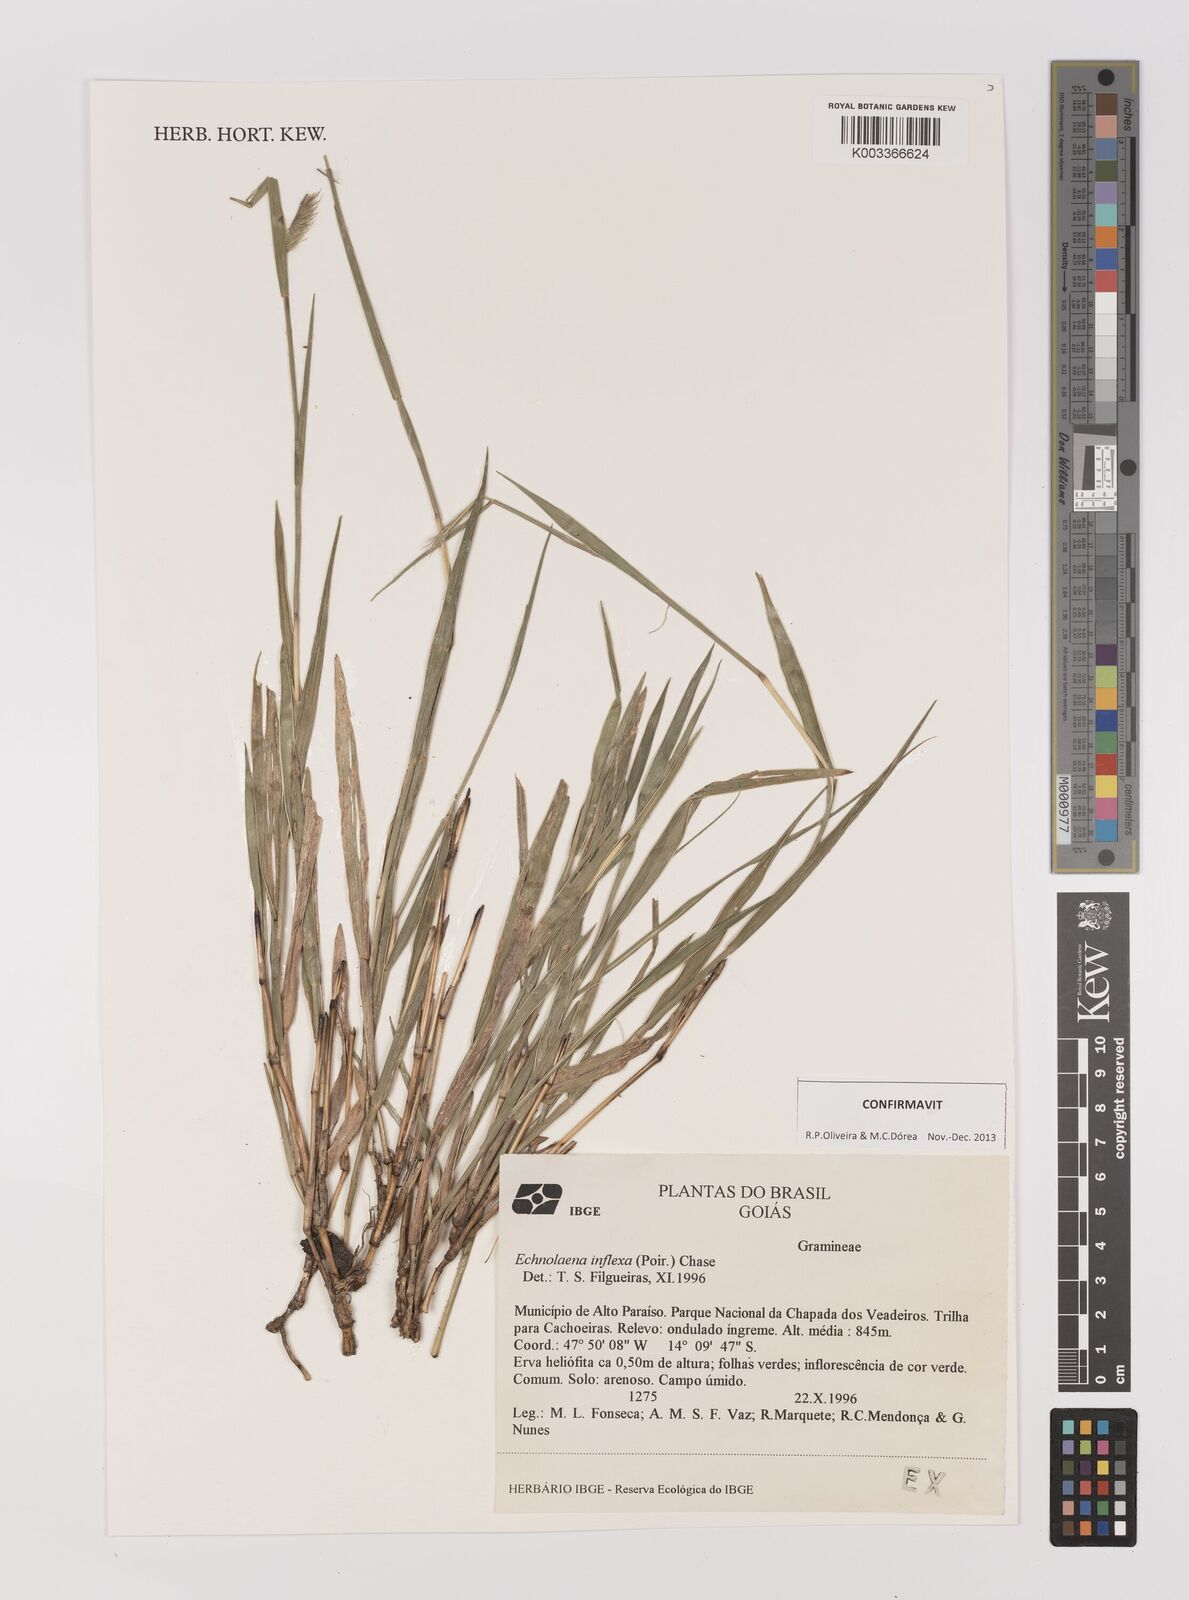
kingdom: Plantae
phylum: Tracheophyta
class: Liliopsida
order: Poales
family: Poaceae
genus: Echinolaena
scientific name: Echinolaena inflexa
